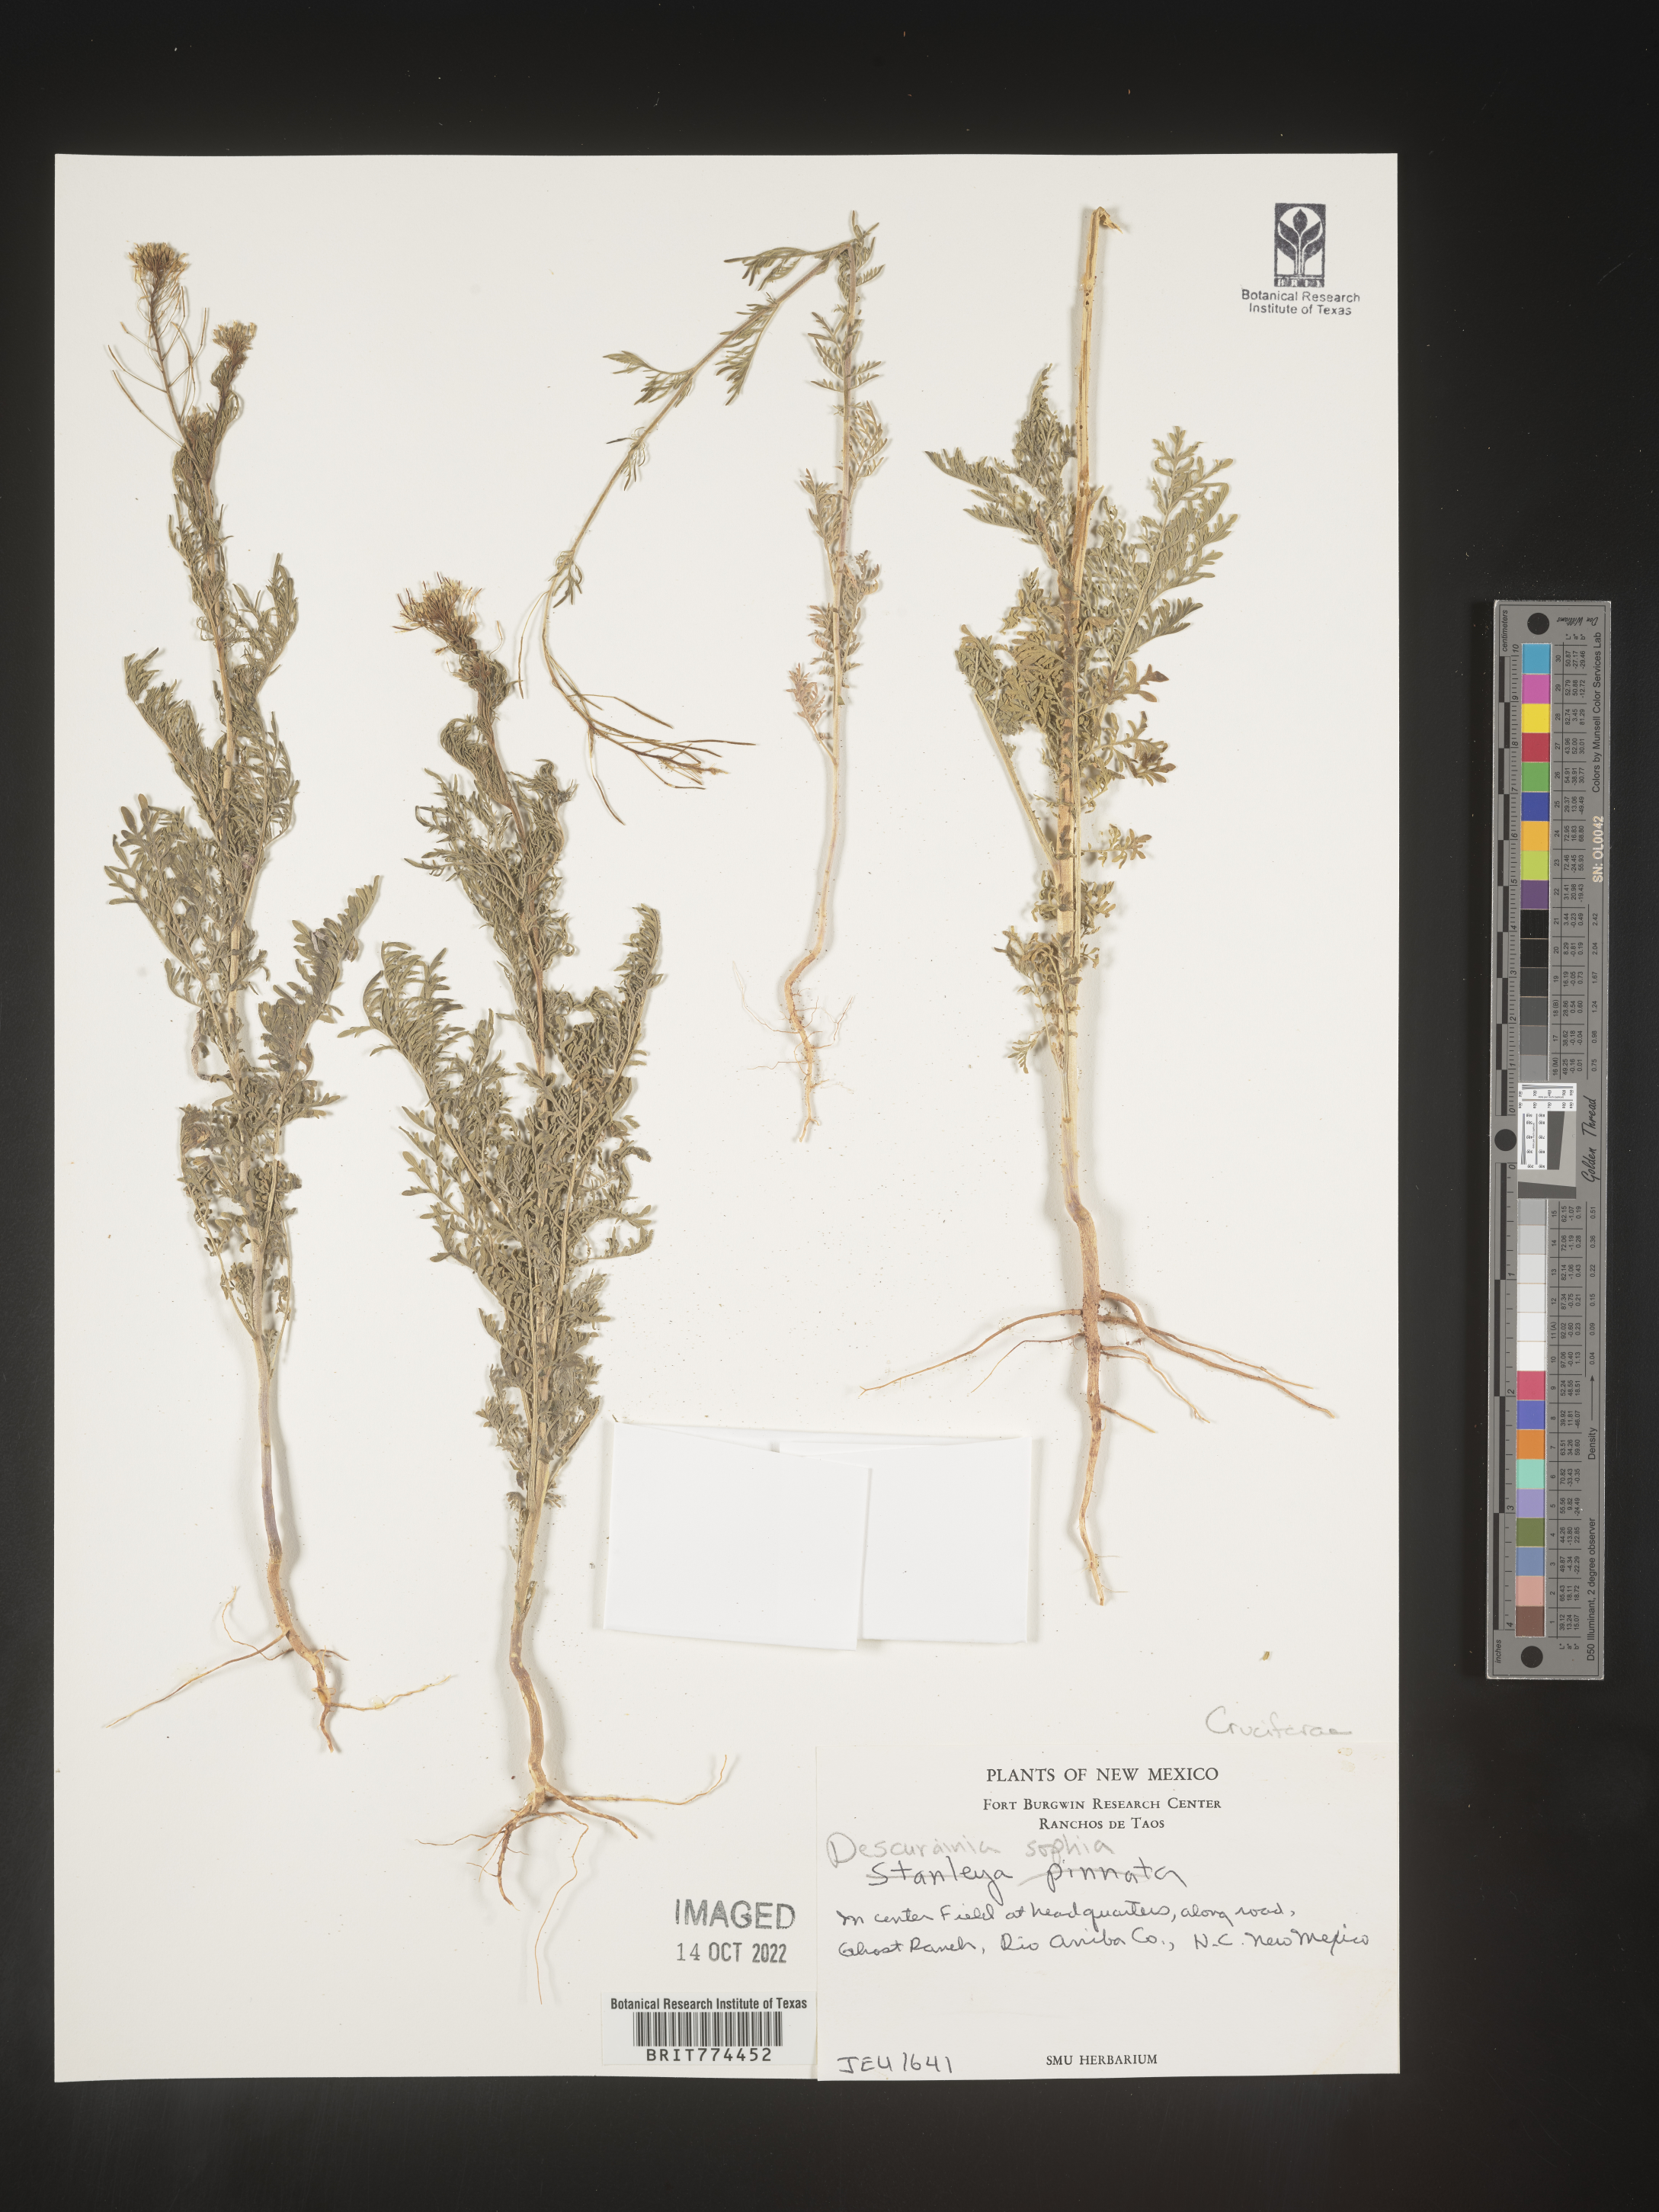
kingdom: Plantae
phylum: Tracheophyta
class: Magnoliopsida
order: Brassicales
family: Brassicaceae
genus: Descurainia
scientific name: Descurainia sophia
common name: Flixweed
